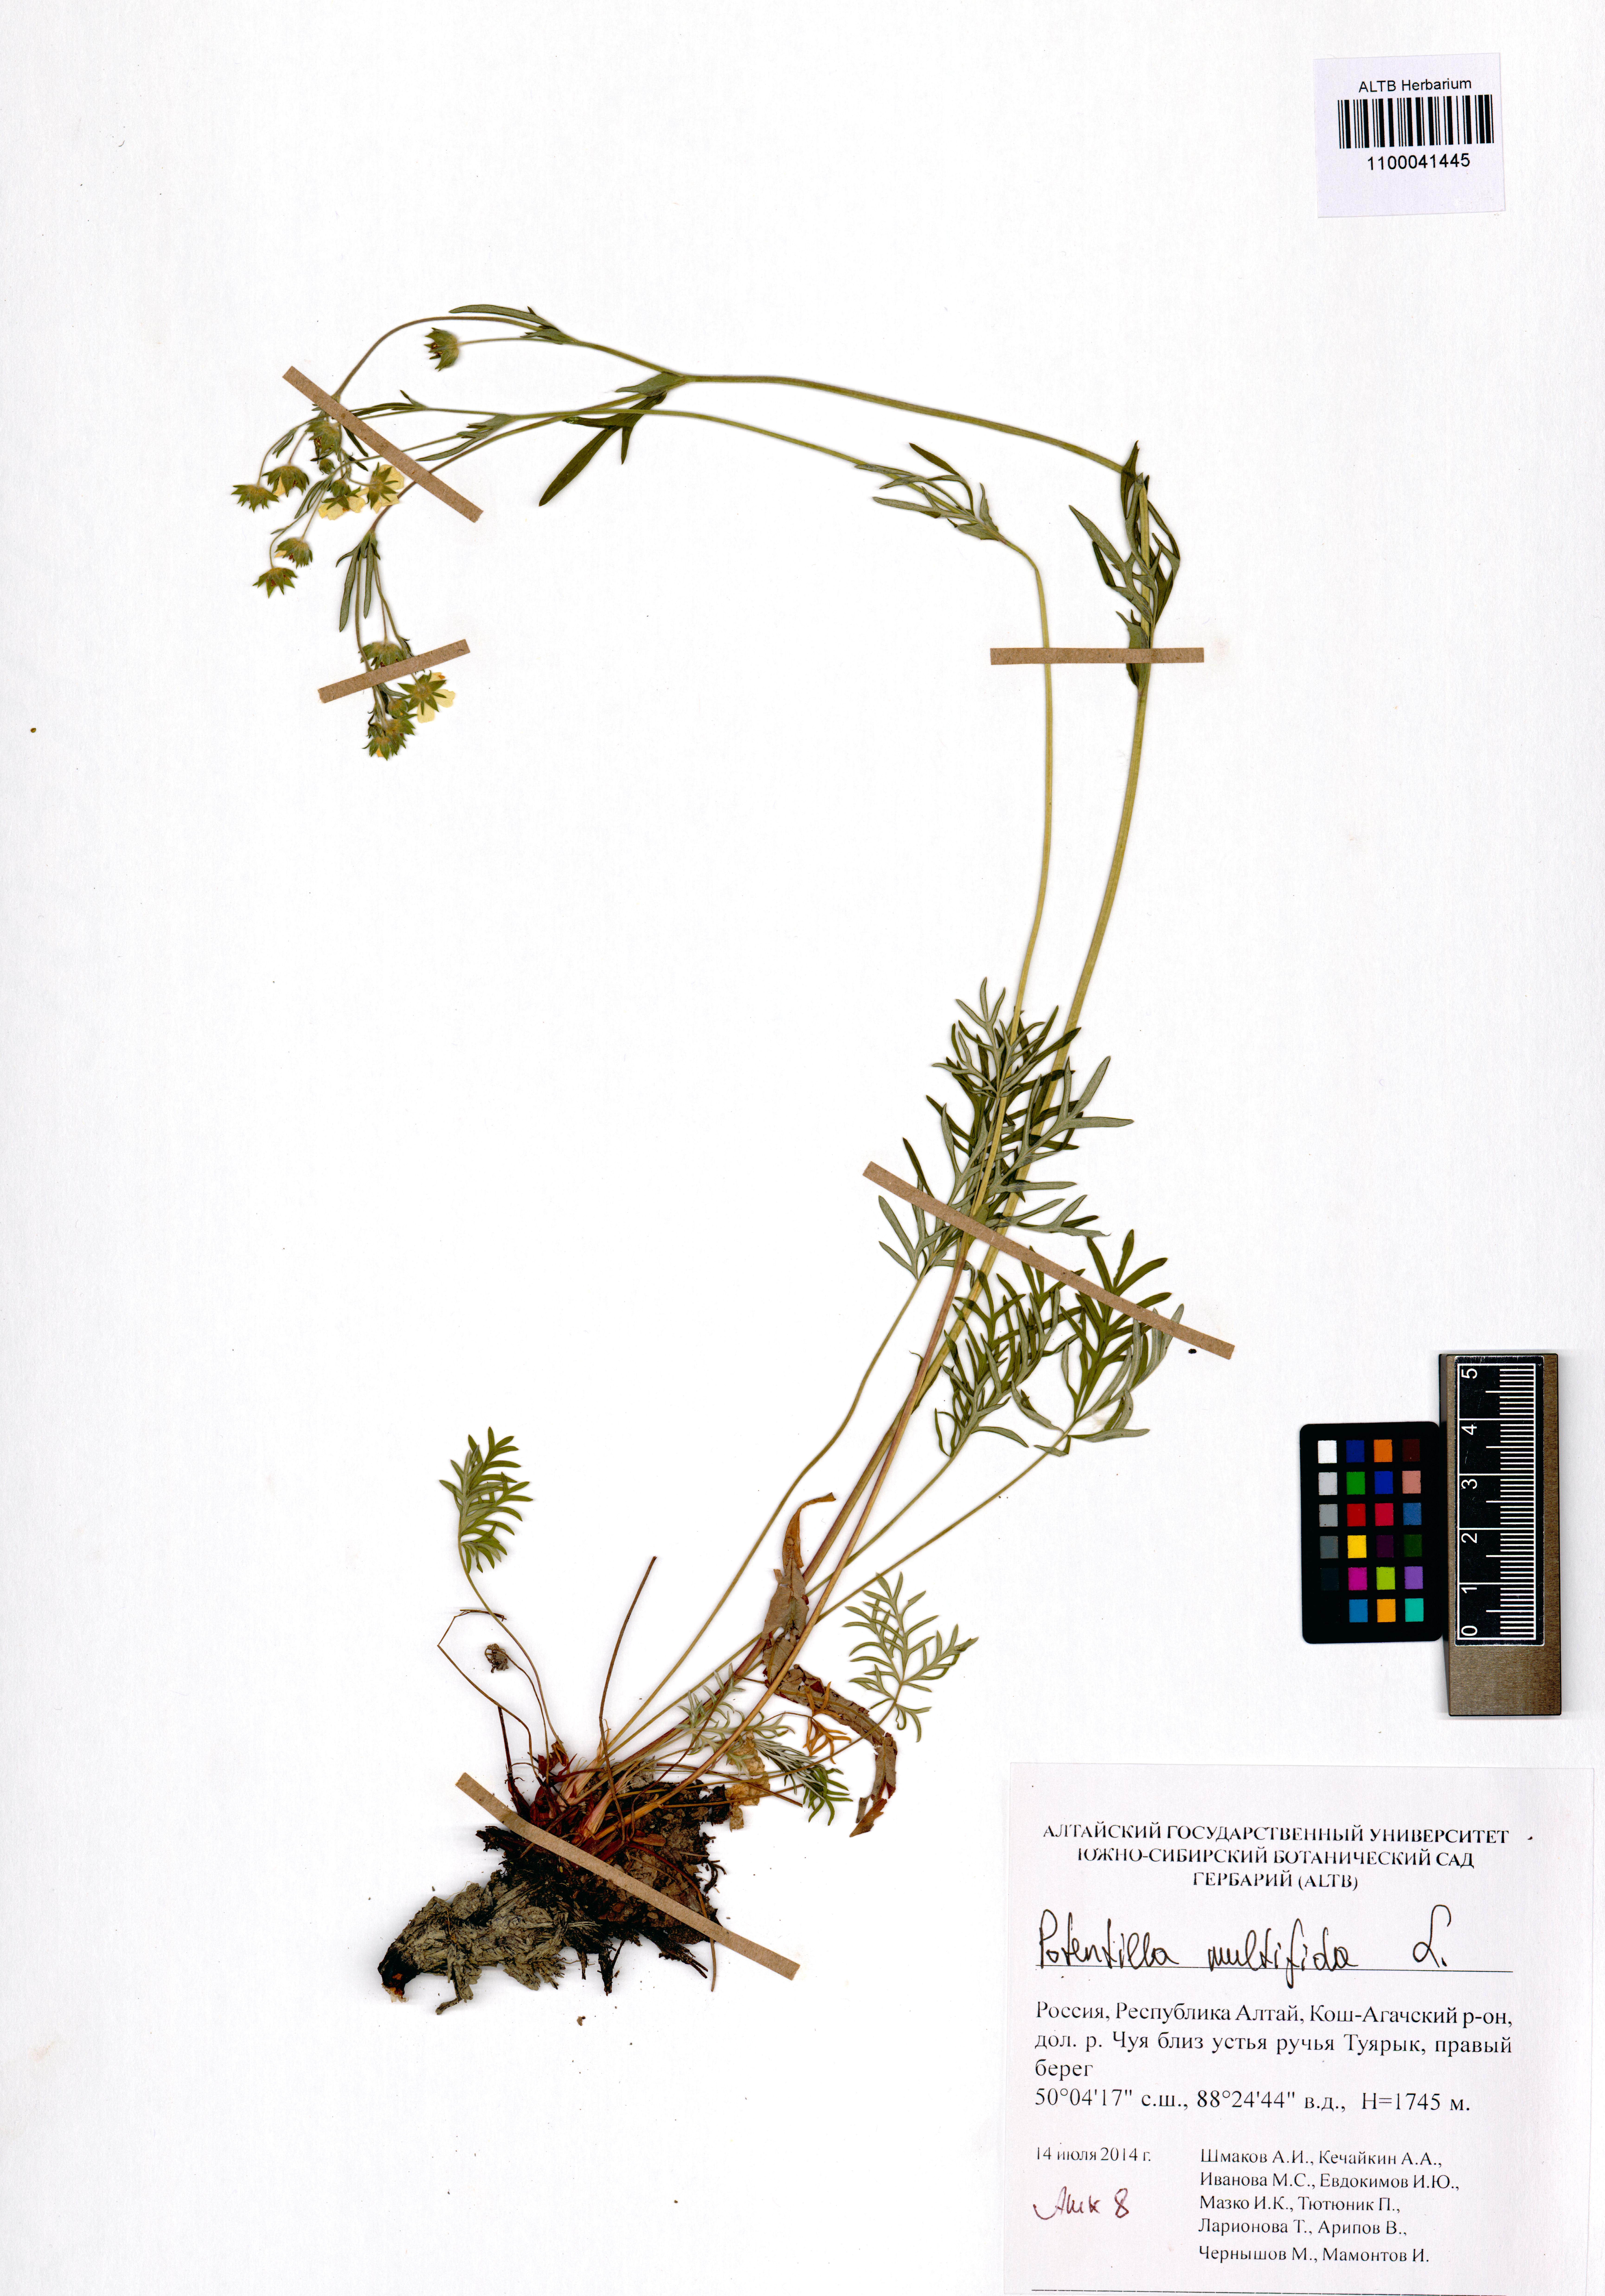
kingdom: Plantae
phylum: Tracheophyta
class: Magnoliopsida
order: Rosales
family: Rosaceae
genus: Potentilla
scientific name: Potentilla multifida
